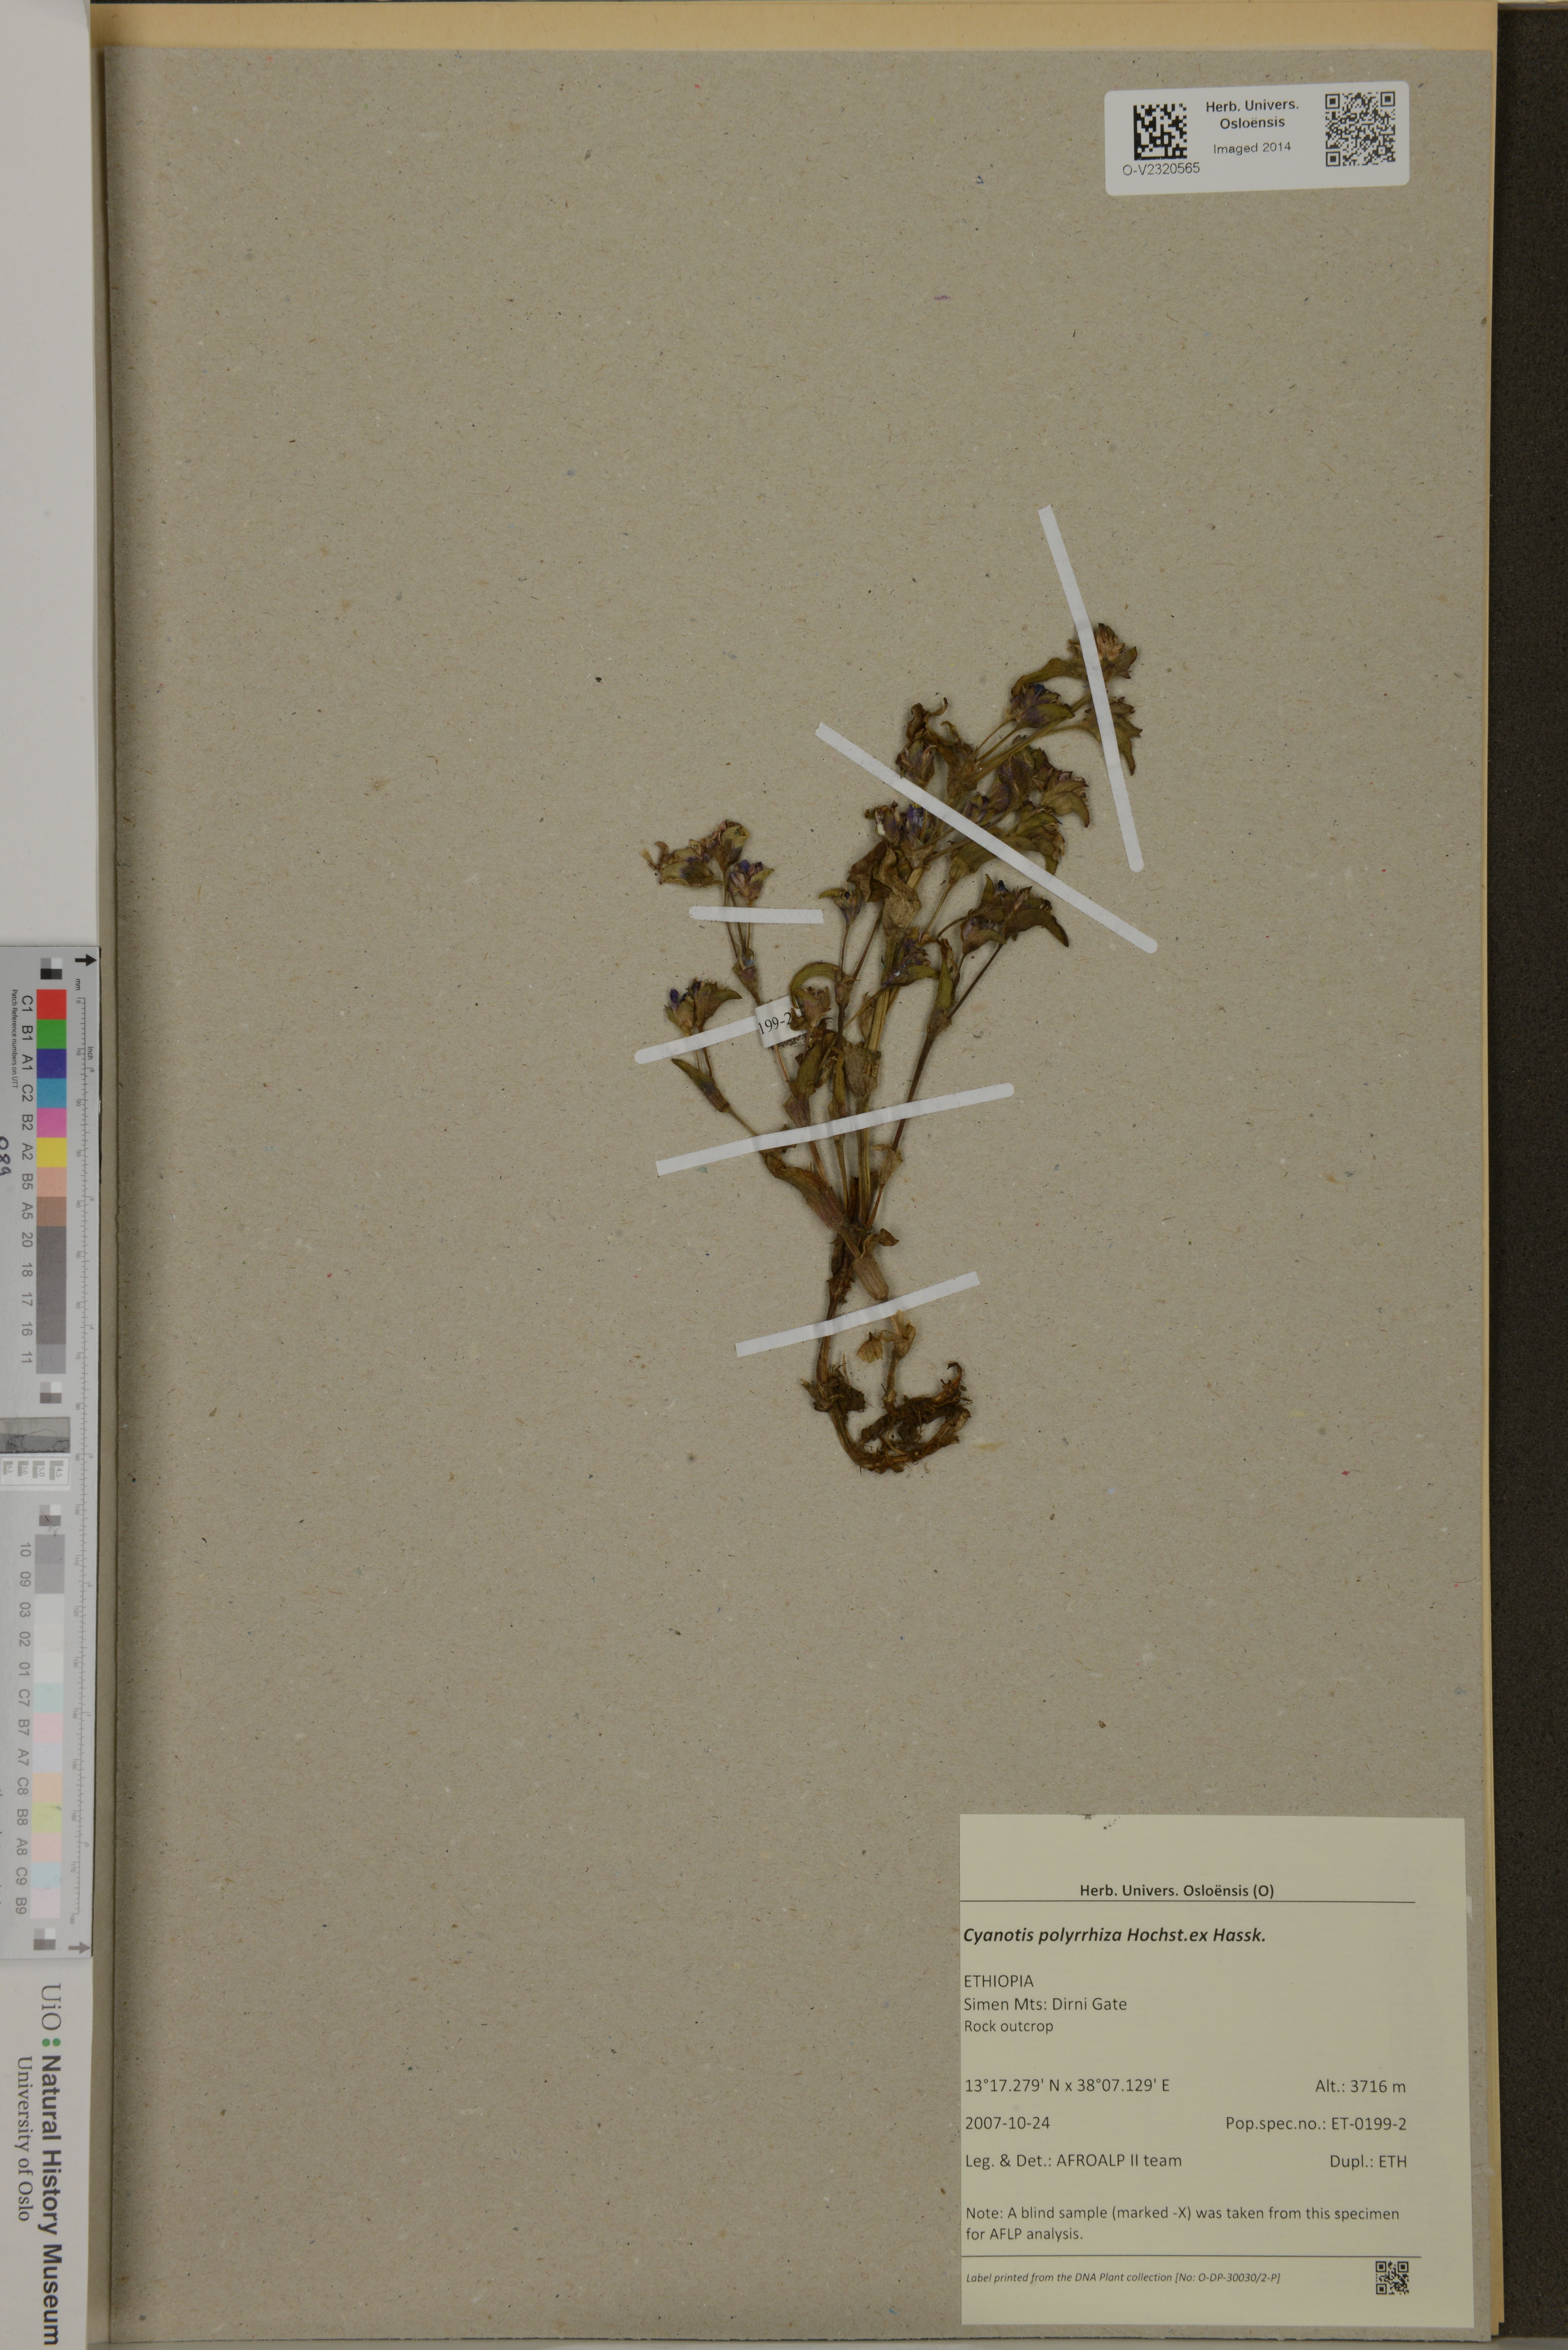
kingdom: Plantae
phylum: Tracheophyta
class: Liliopsida
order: Commelinales
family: Commelinaceae
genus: Cyanotis
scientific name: Cyanotis polyrrhiza
